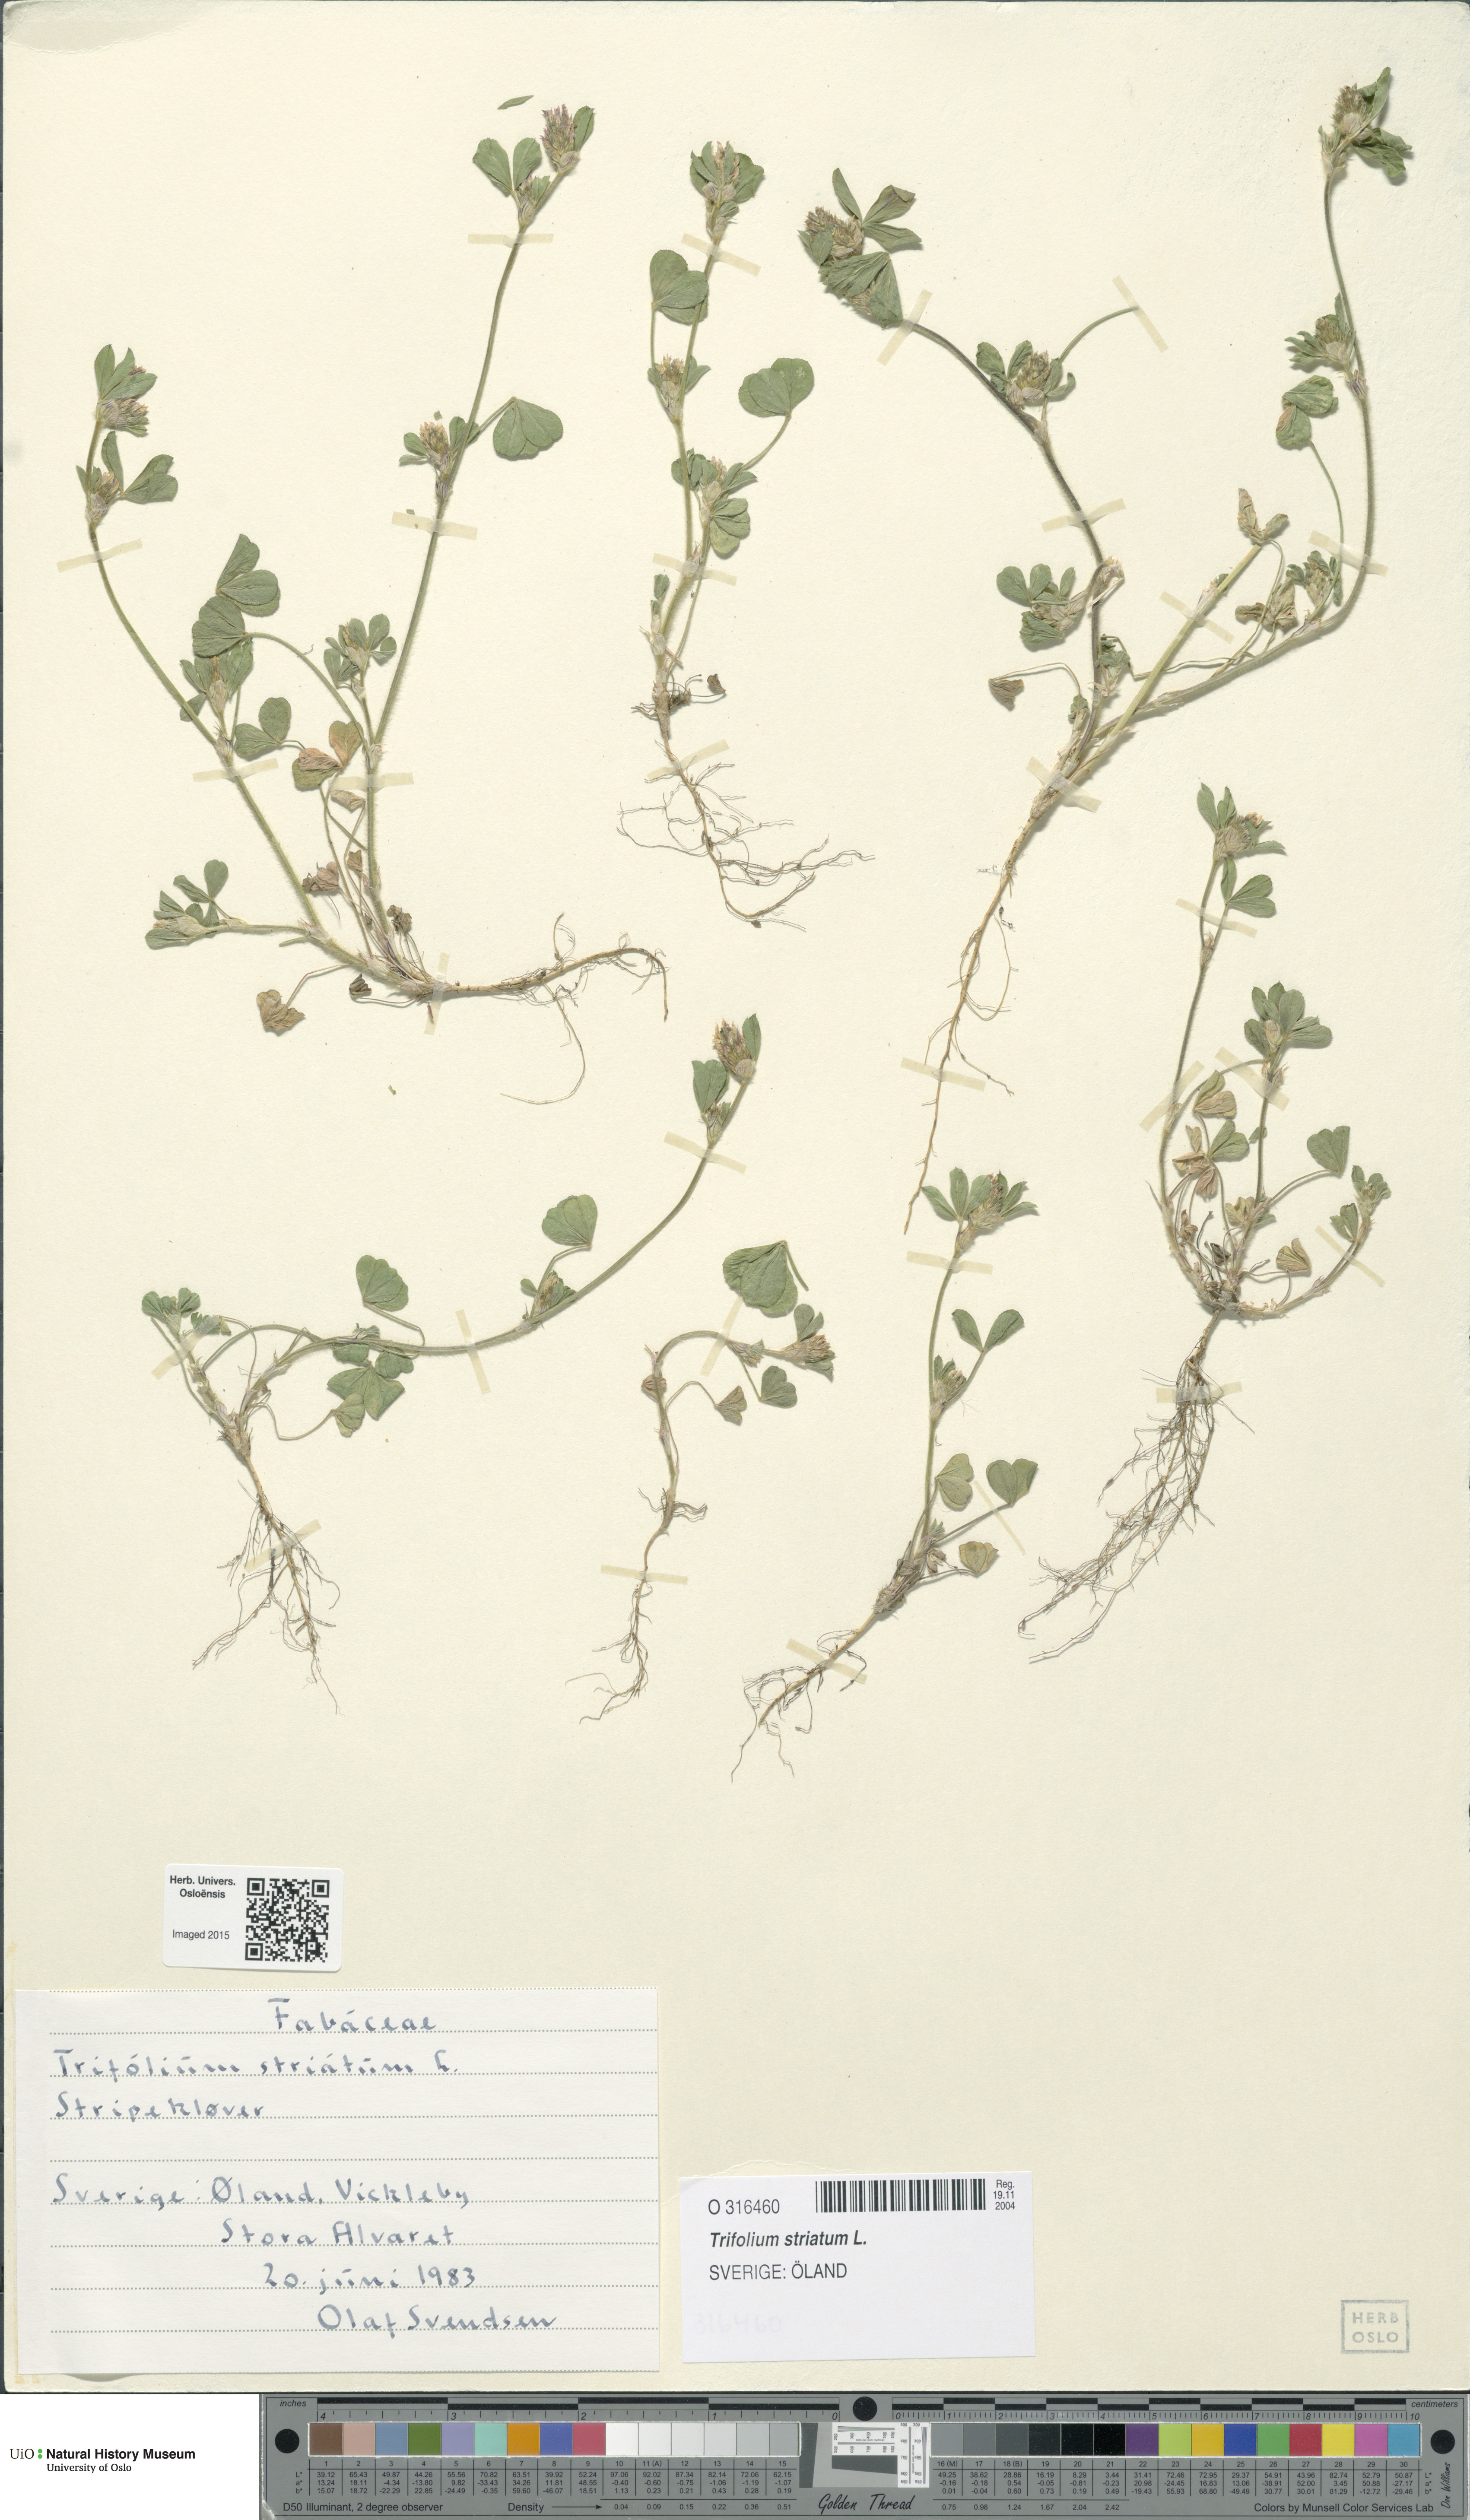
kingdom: Plantae
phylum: Tracheophyta
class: Magnoliopsida
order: Fabales
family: Fabaceae
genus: Trifolium
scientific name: Trifolium striatum
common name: Knotted clover
